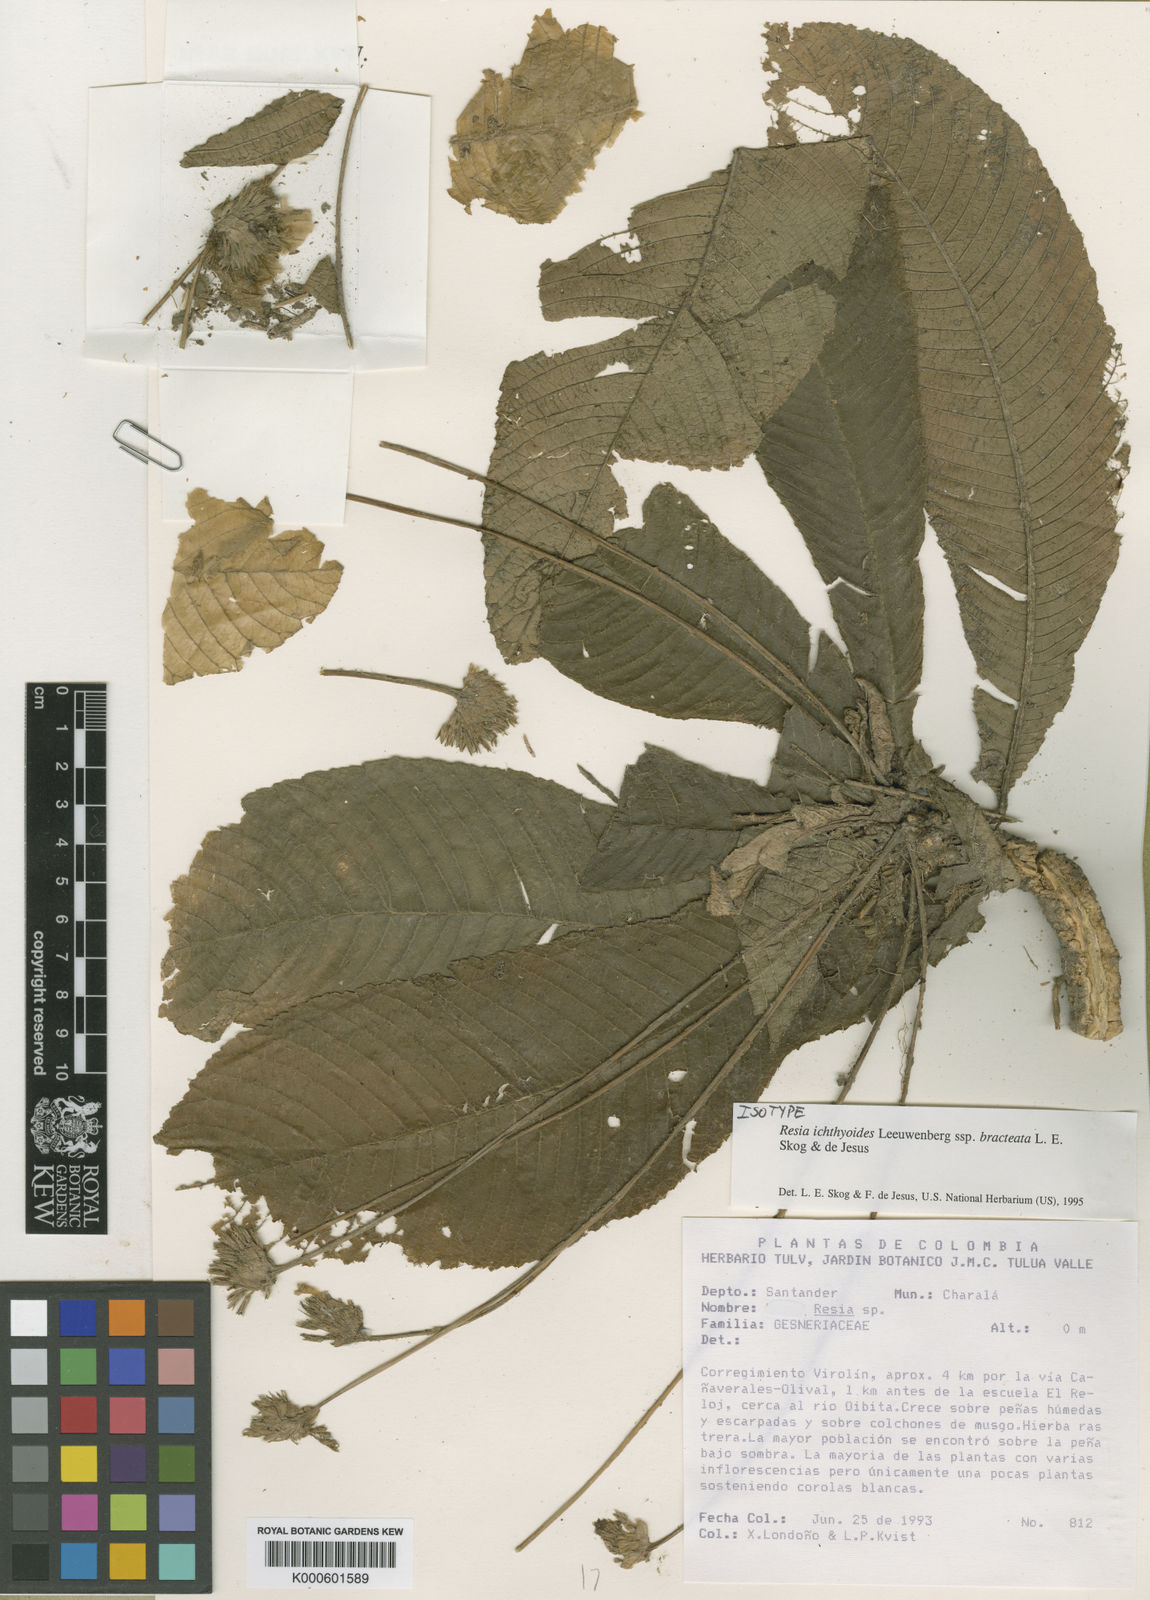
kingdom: Plantae
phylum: Tracheophyta
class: Magnoliopsida
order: Lamiales
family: Gesneriaceae
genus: Resia
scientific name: Resia ichthyoides
